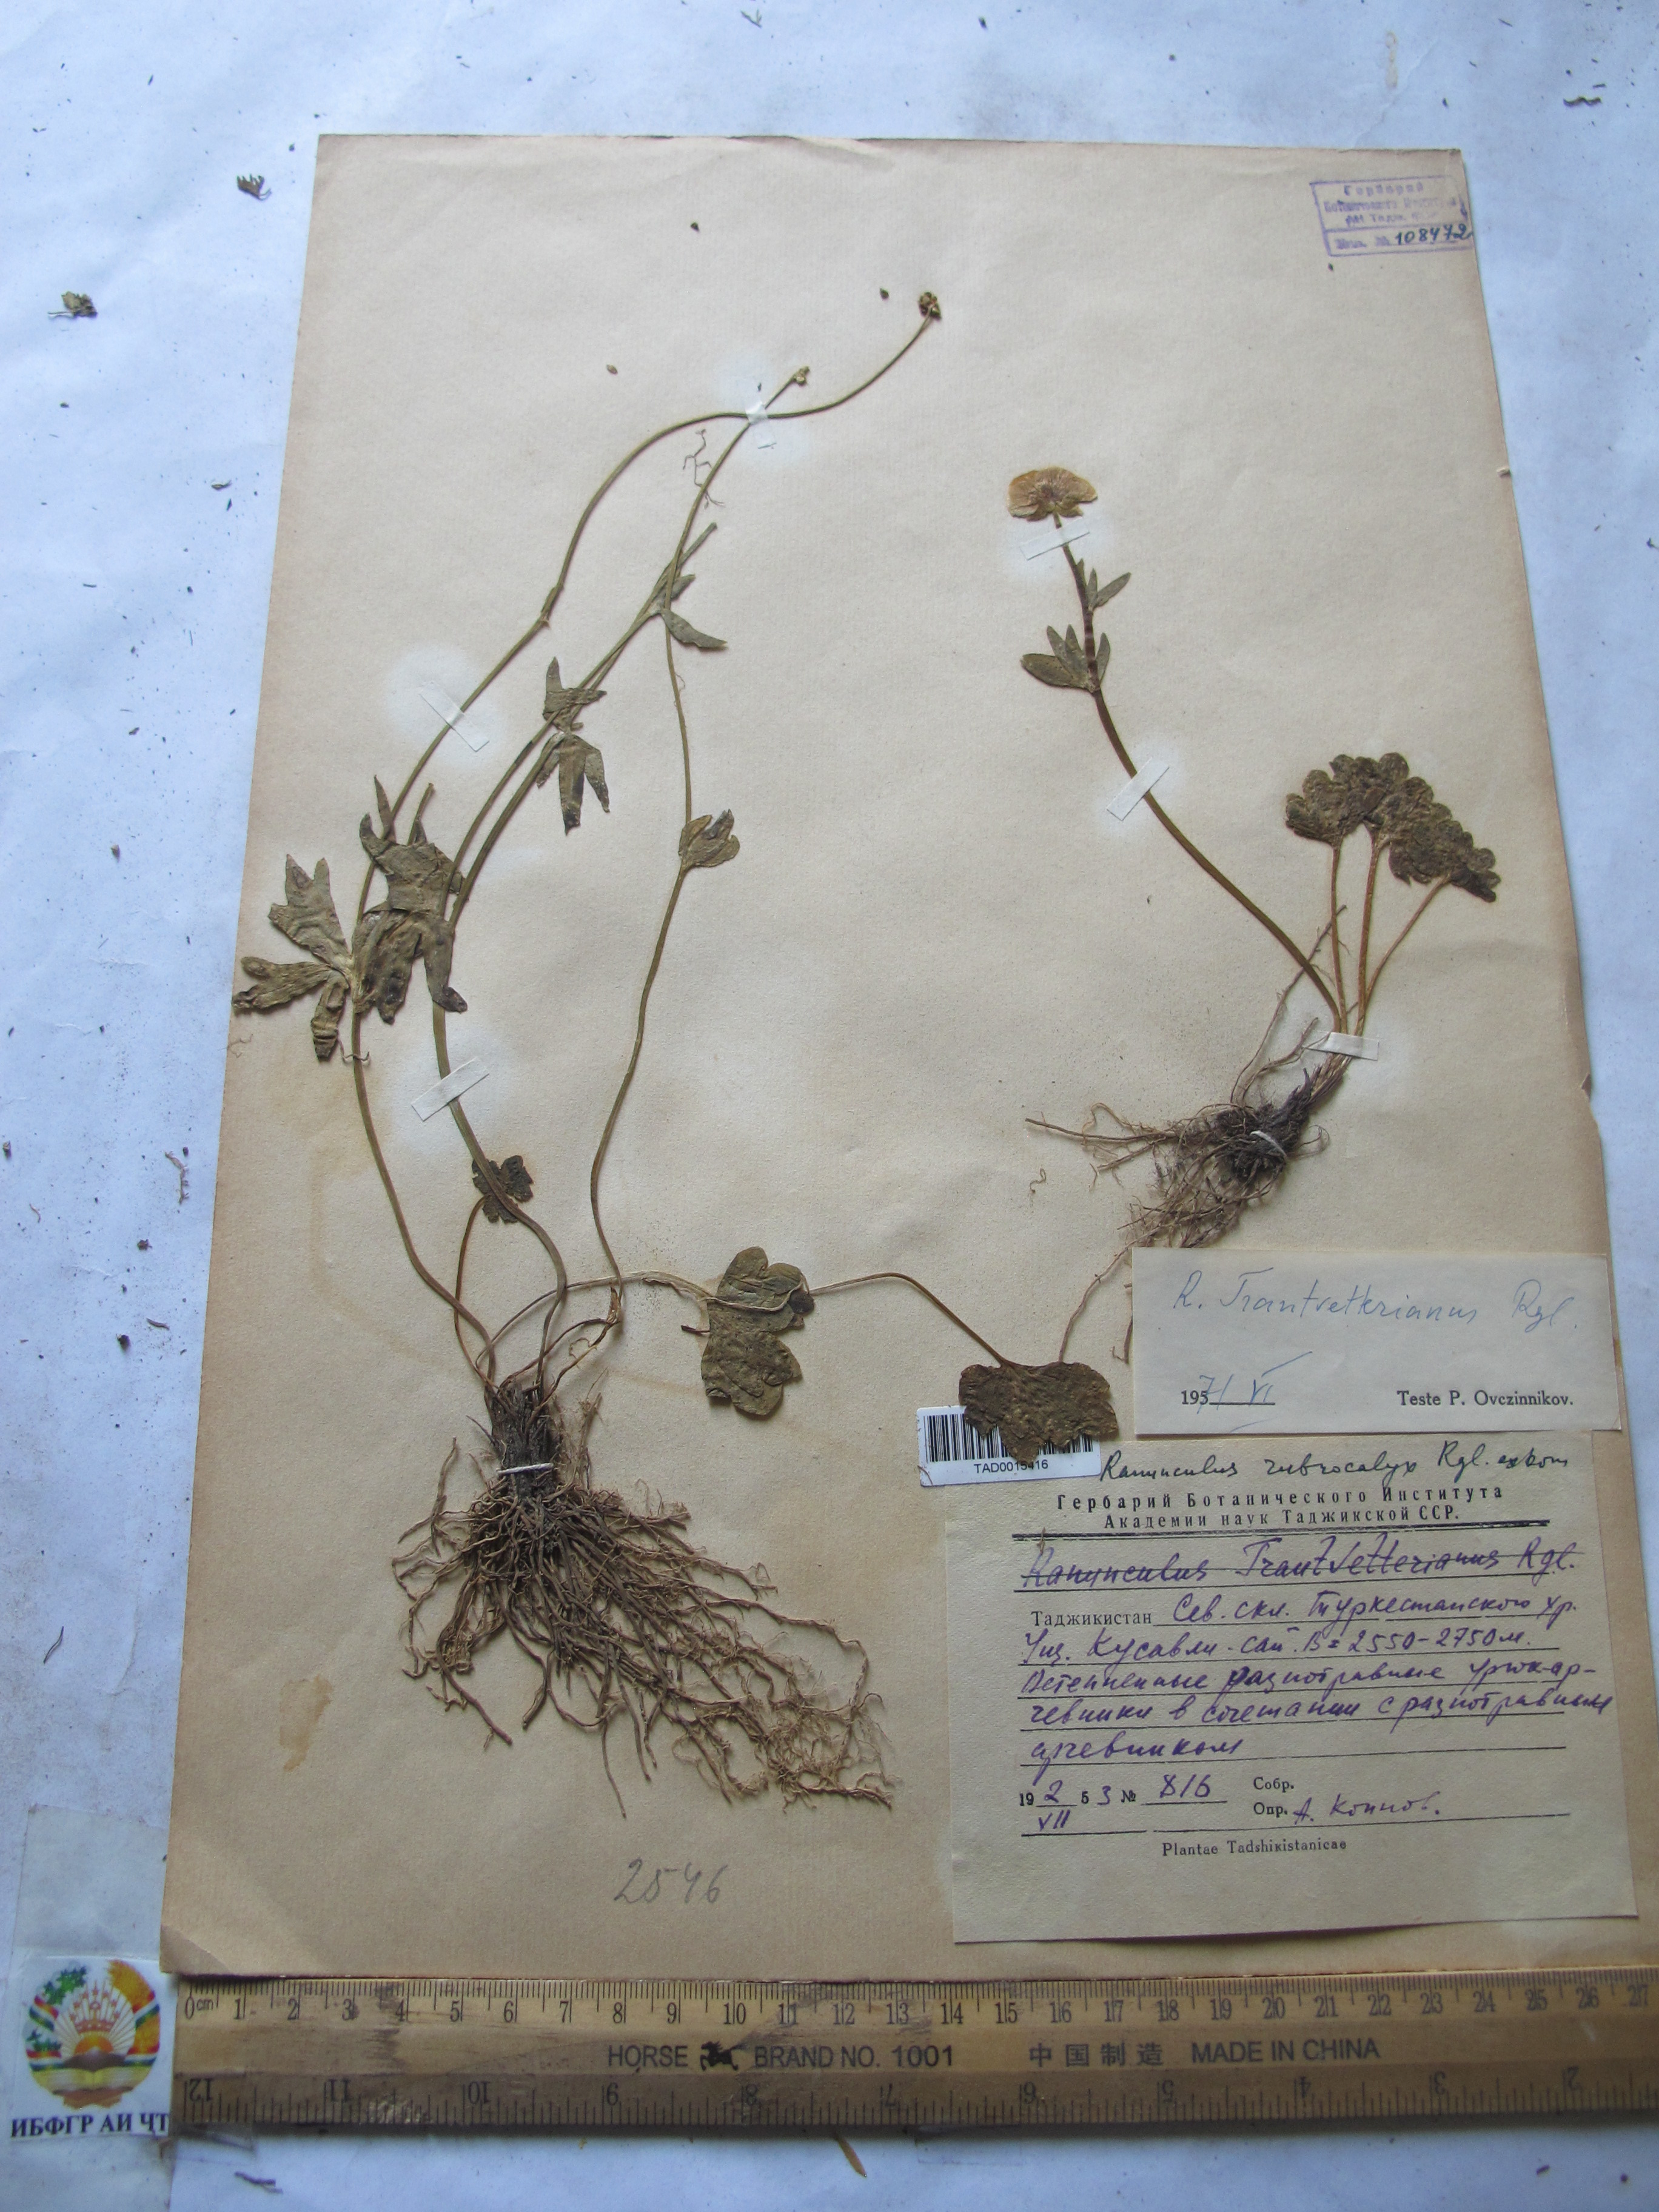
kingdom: Plantae
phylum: Tracheophyta
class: Magnoliopsida
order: Ranunculales
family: Ranunculaceae
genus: Ranunculus
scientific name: Ranunculus songaricus
